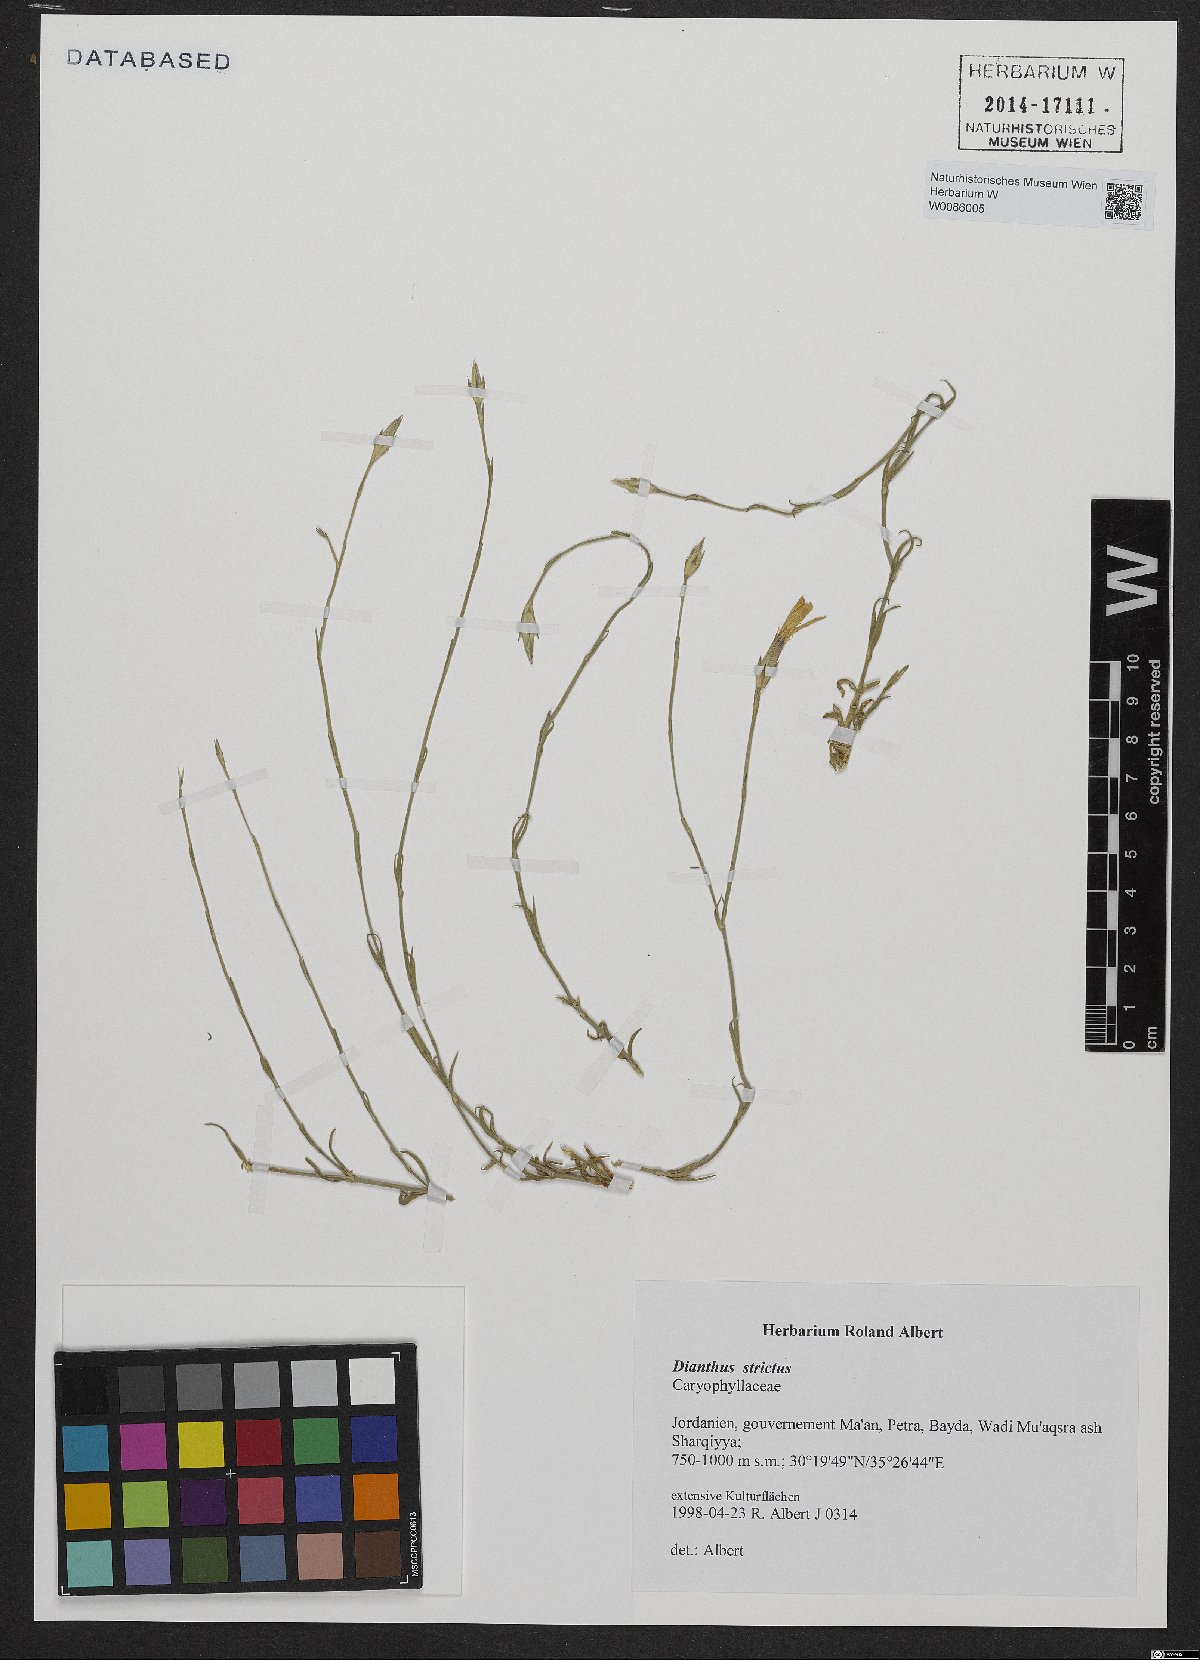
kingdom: Plantae
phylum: Tracheophyta
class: Magnoliopsida
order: Caryophyllales
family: Caryophyllaceae
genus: Dianthus
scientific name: Dianthus strictus
